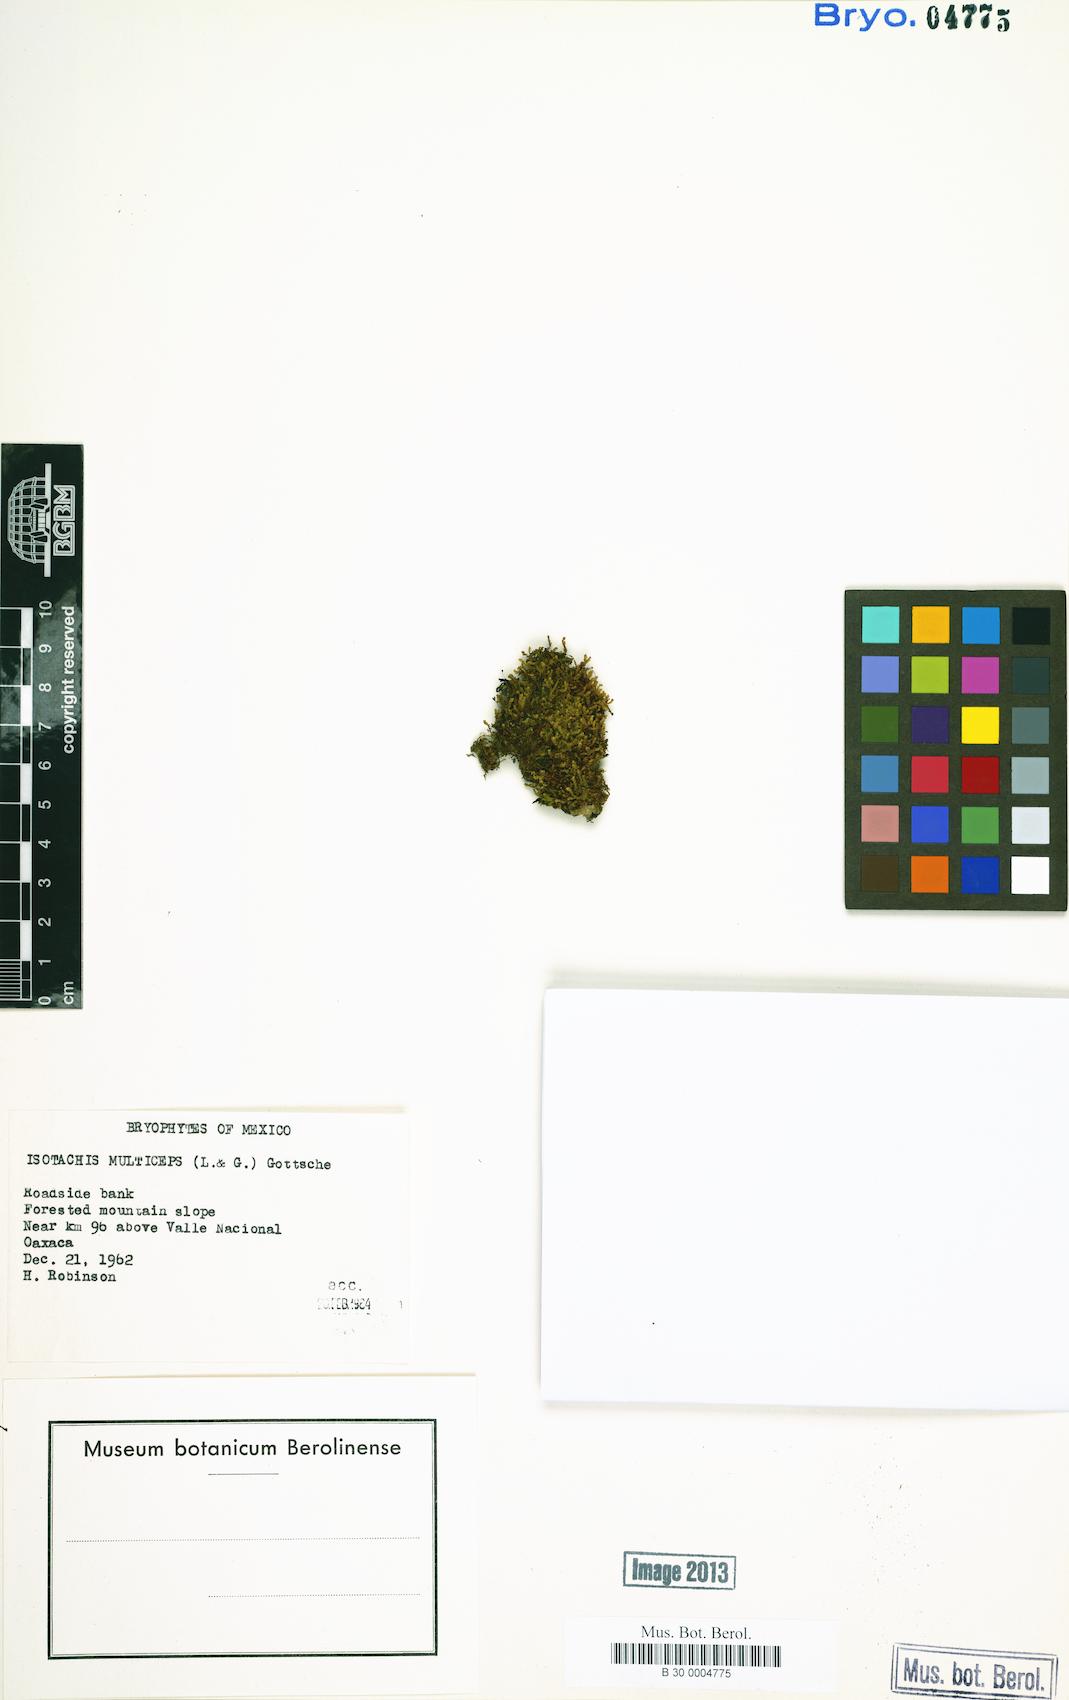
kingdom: Plantae
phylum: Marchantiophyta
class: Jungermanniopsida
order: Jungermanniales
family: Balantiopsidaceae
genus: Isotachis
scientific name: Isotachis multiceps
